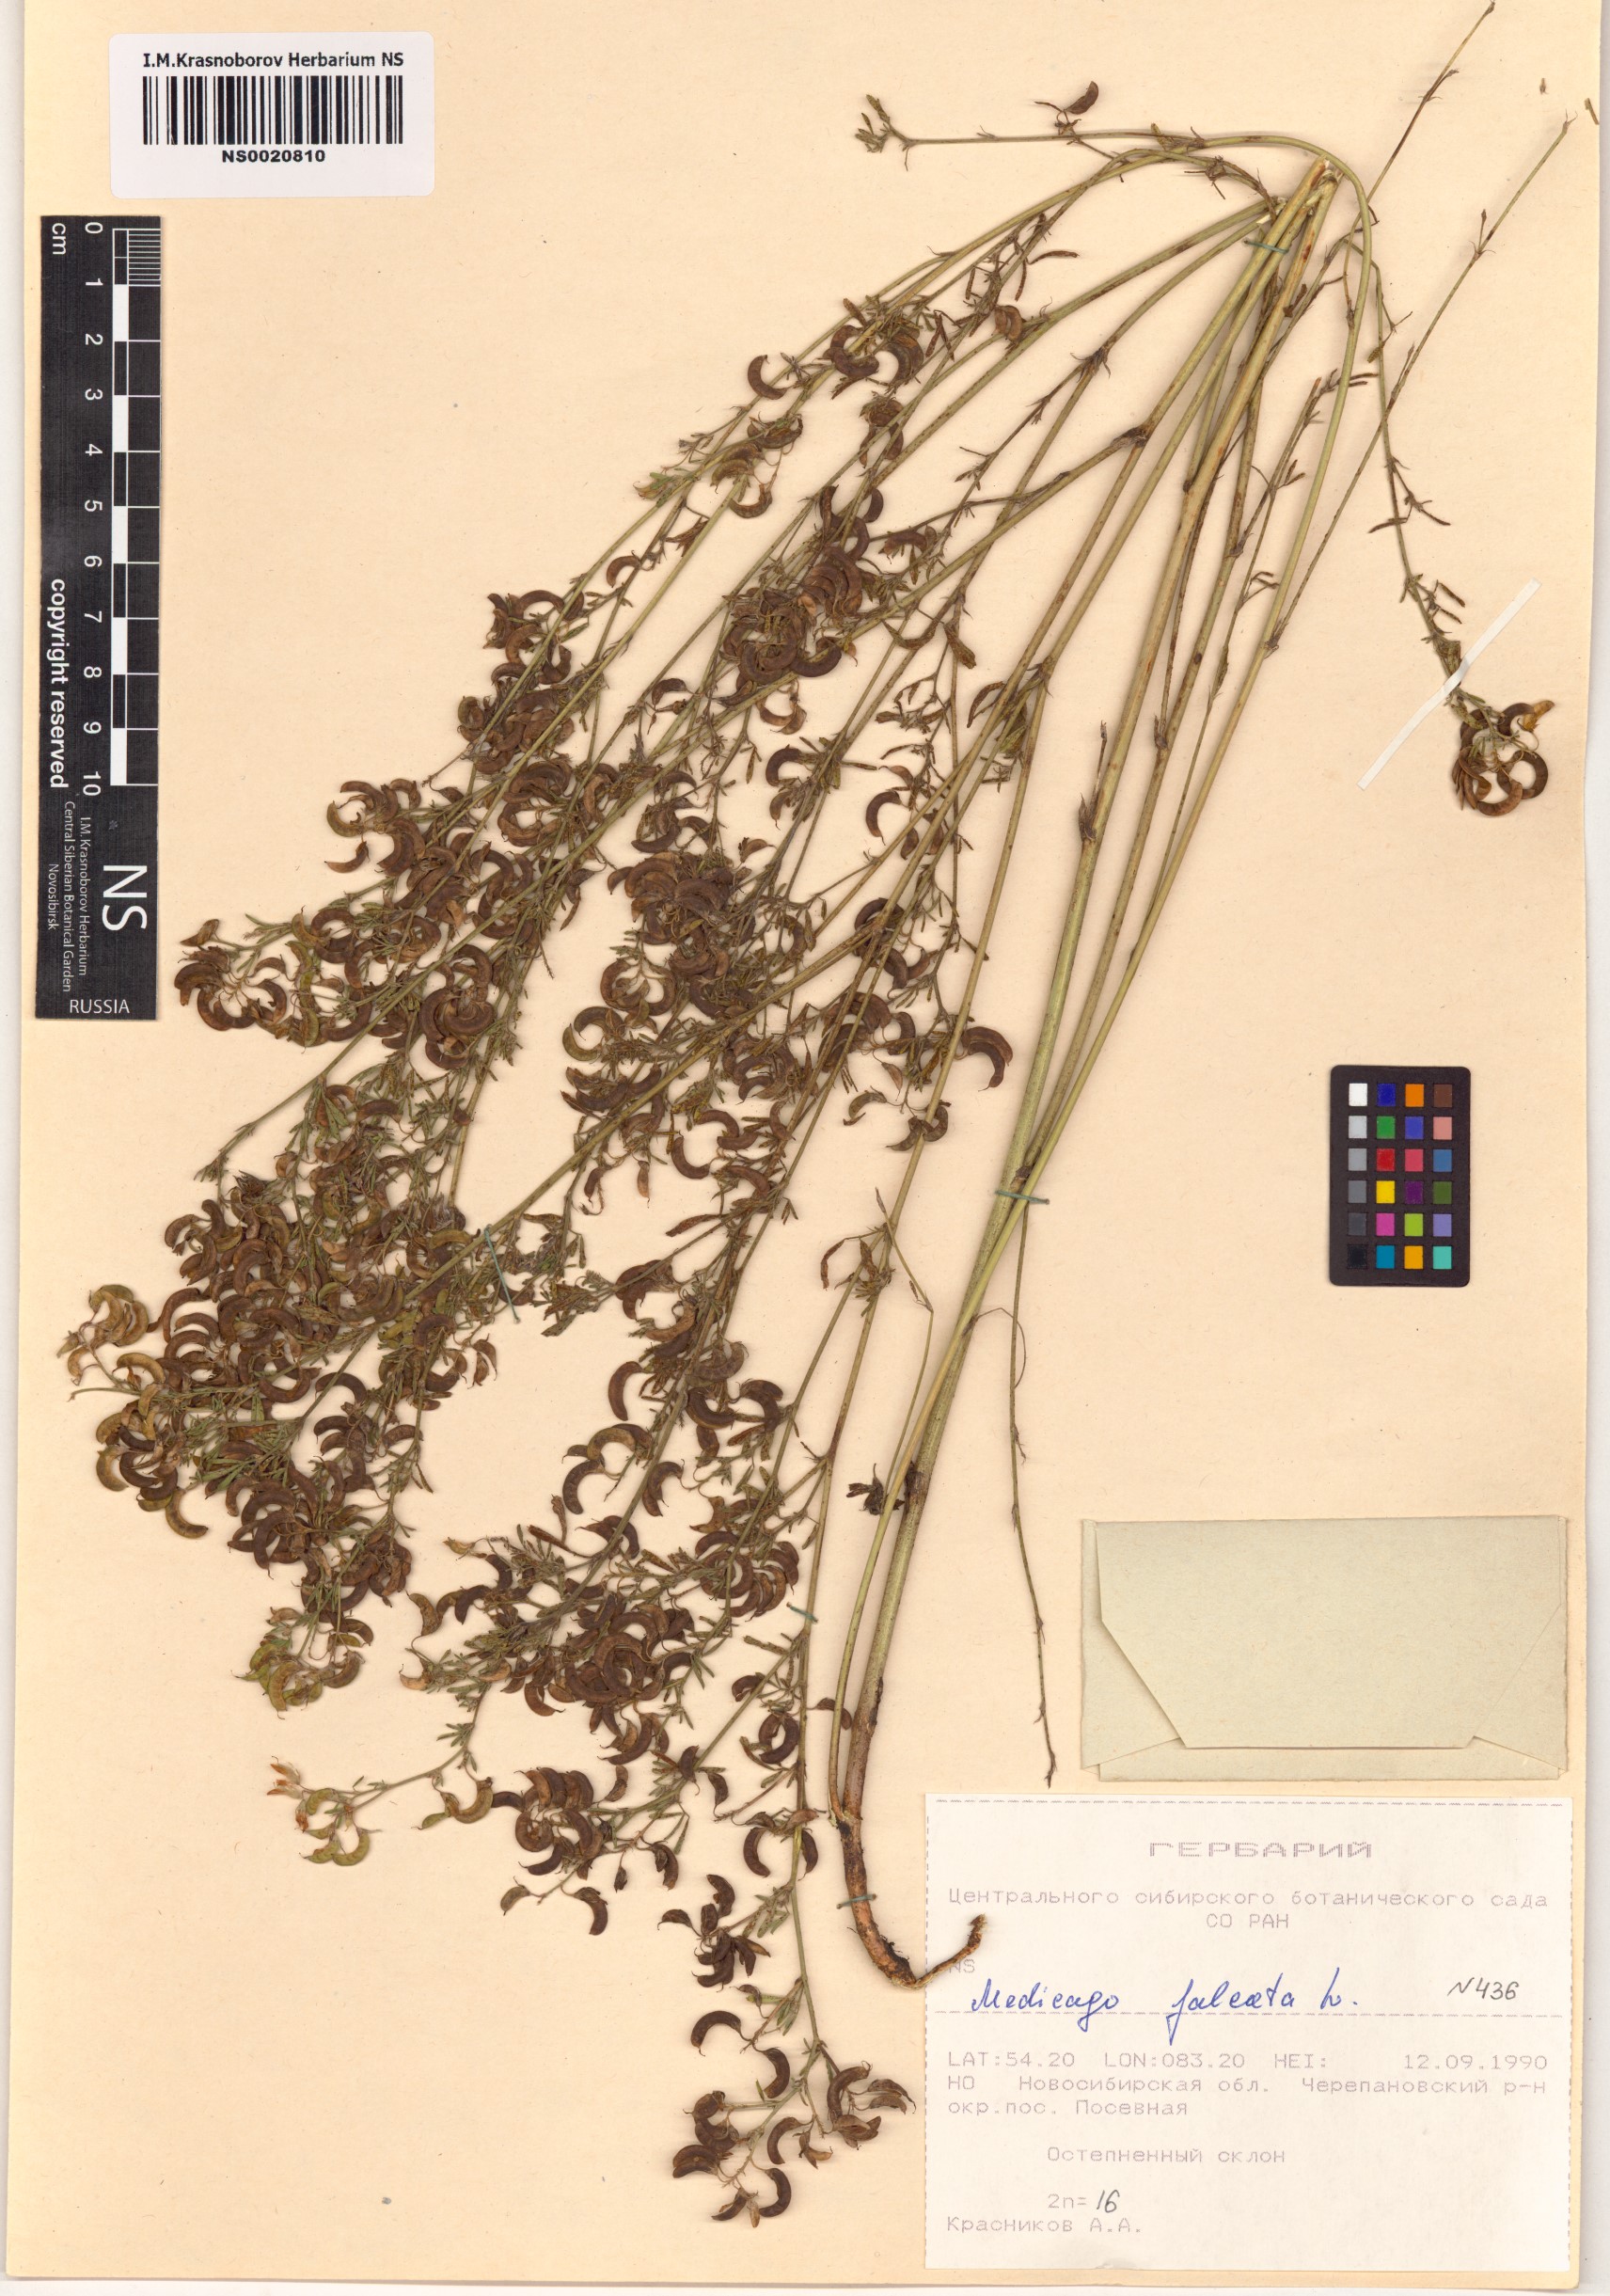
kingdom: Plantae
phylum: Tracheophyta
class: Magnoliopsida
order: Fabales
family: Fabaceae
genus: Medicago
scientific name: Medicago falcata
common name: Sickle medick
